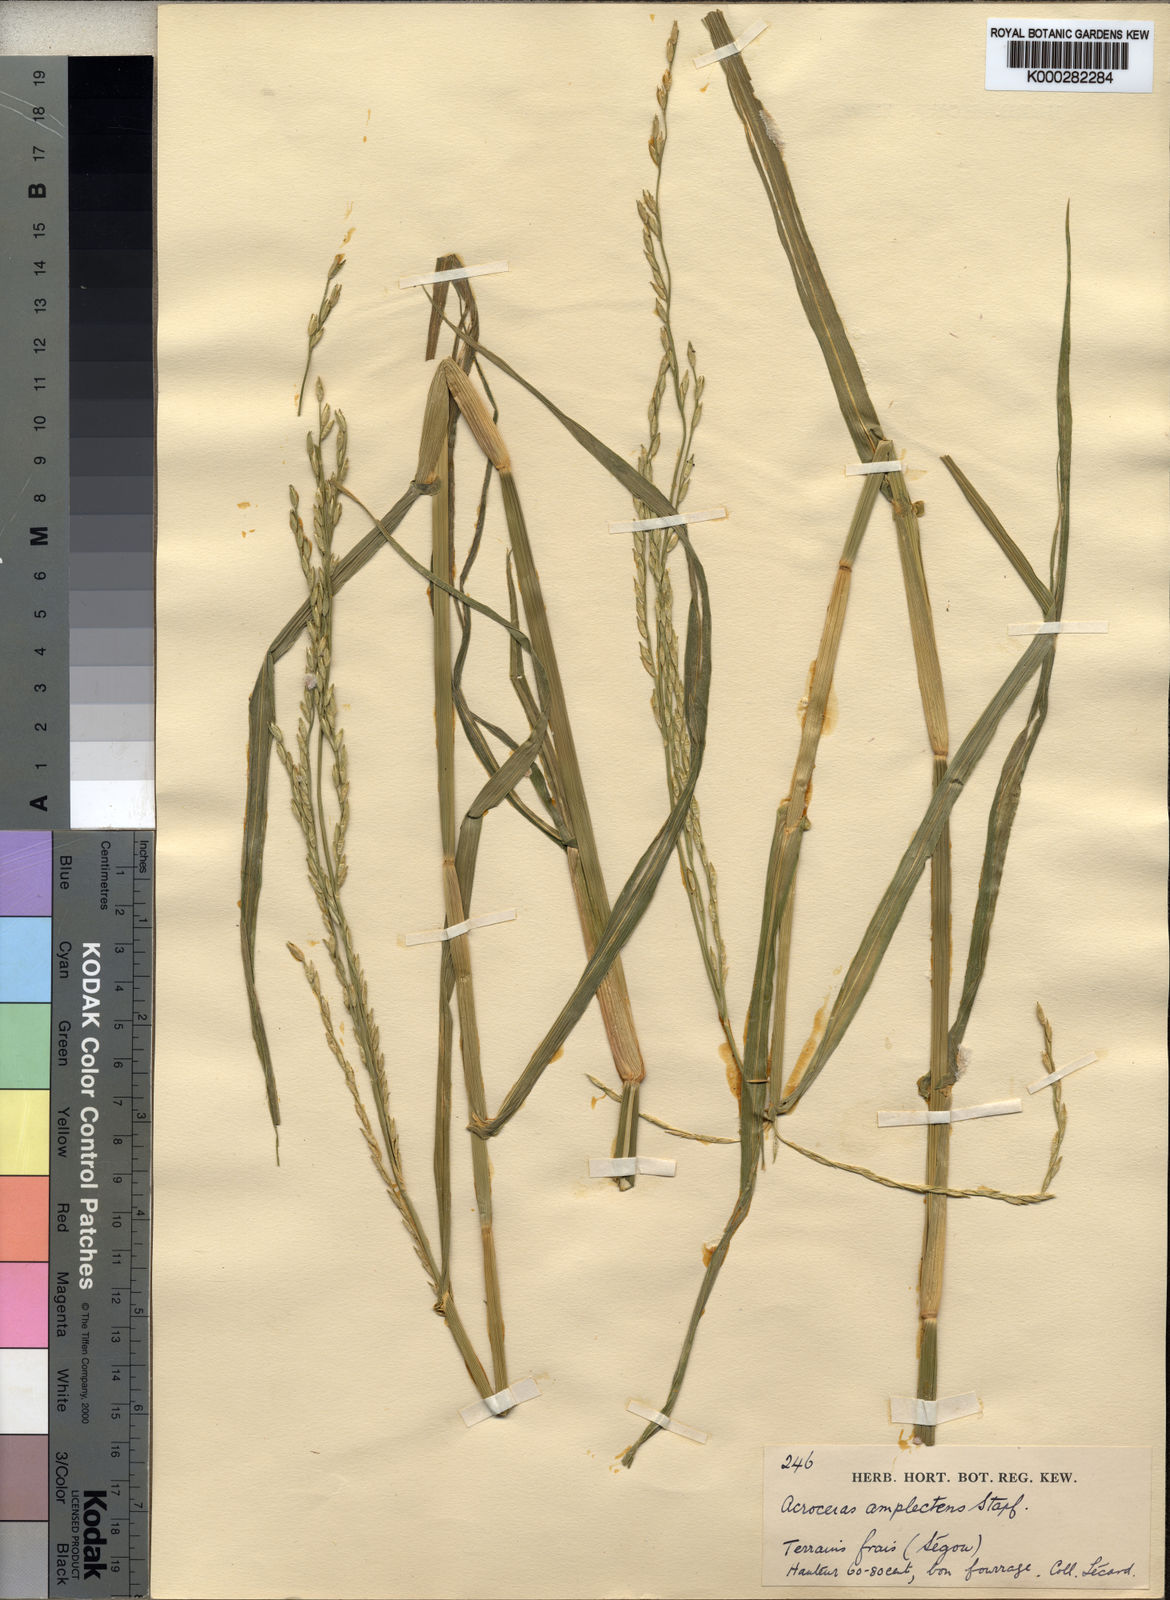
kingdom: Plantae
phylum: Tracheophyta
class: Liliopsida
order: Poales
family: Poaceae
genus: Acroceras
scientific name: Acroceras amplectens
